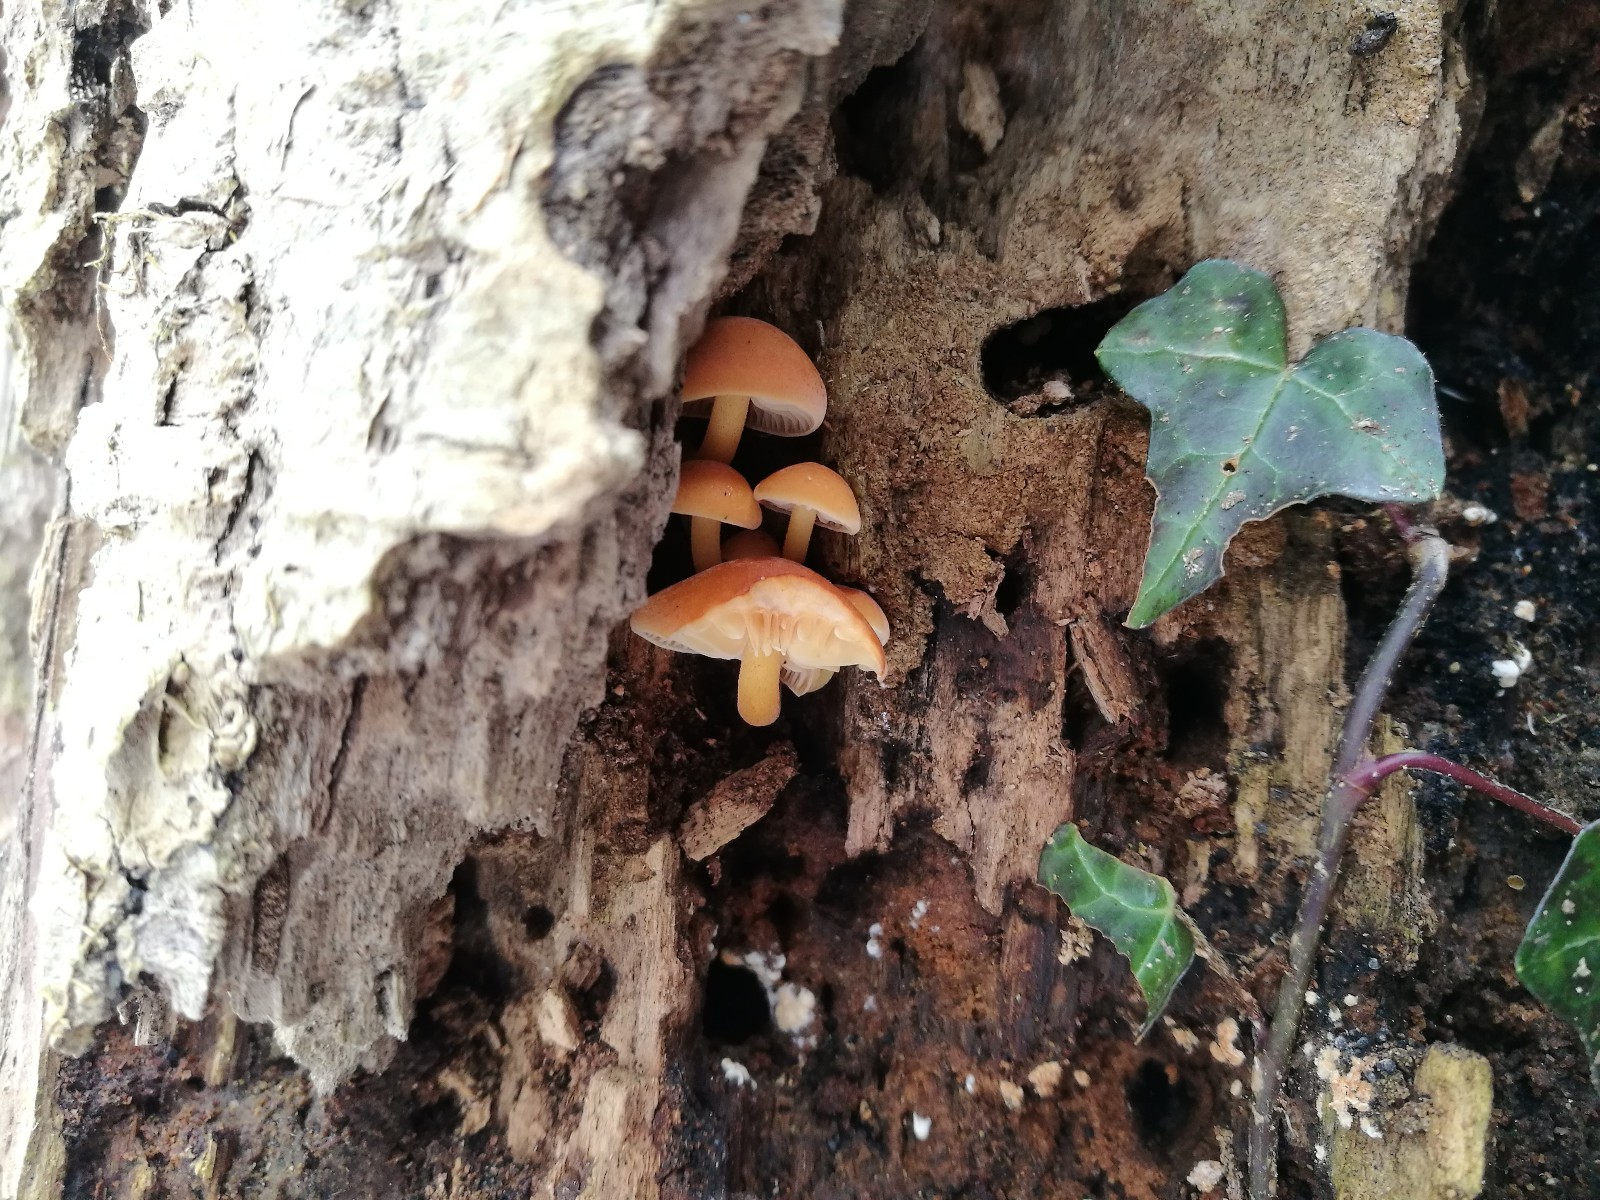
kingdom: Fungi
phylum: Basidiomycota
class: Agaricomycetes
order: Agaricales
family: Physalacriaceae
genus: Flammulina
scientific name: Flammulina velutipes
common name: gul fløjlsfod
